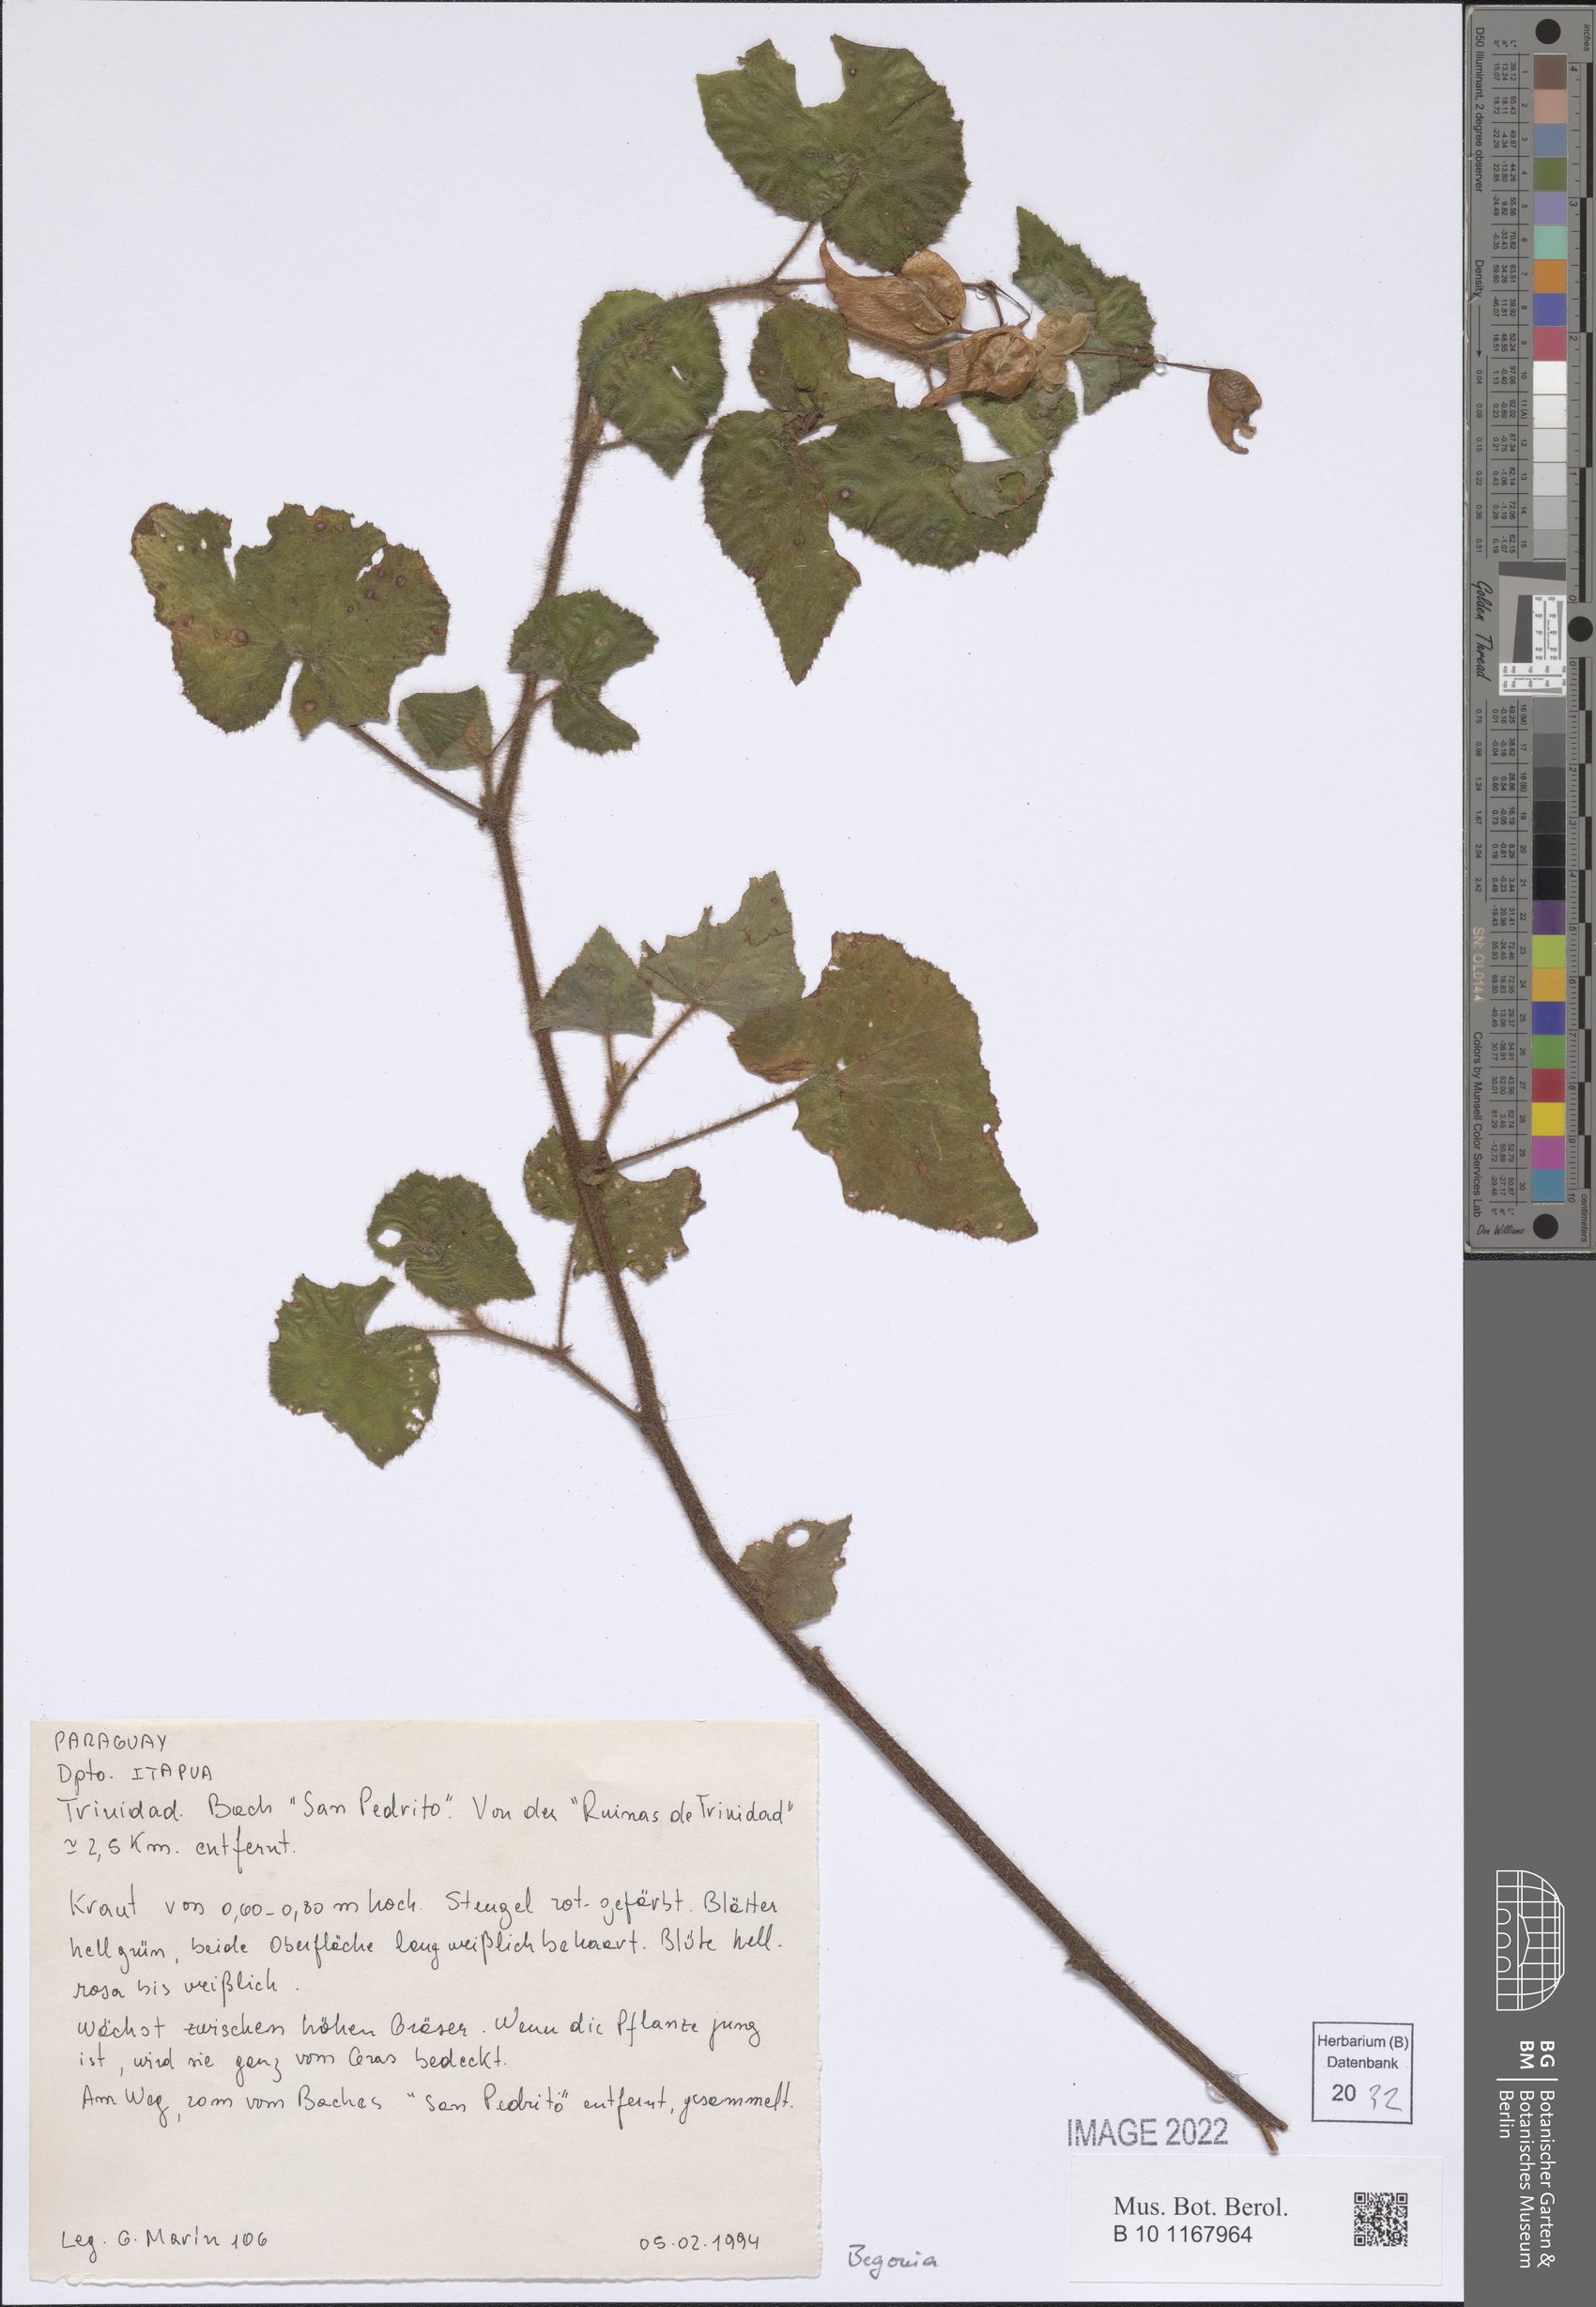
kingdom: Plantae
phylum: Tracheophyta
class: Magnoliopsida
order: Cucurbitales
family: Begoniaceae
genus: Begonia
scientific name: Begonia
